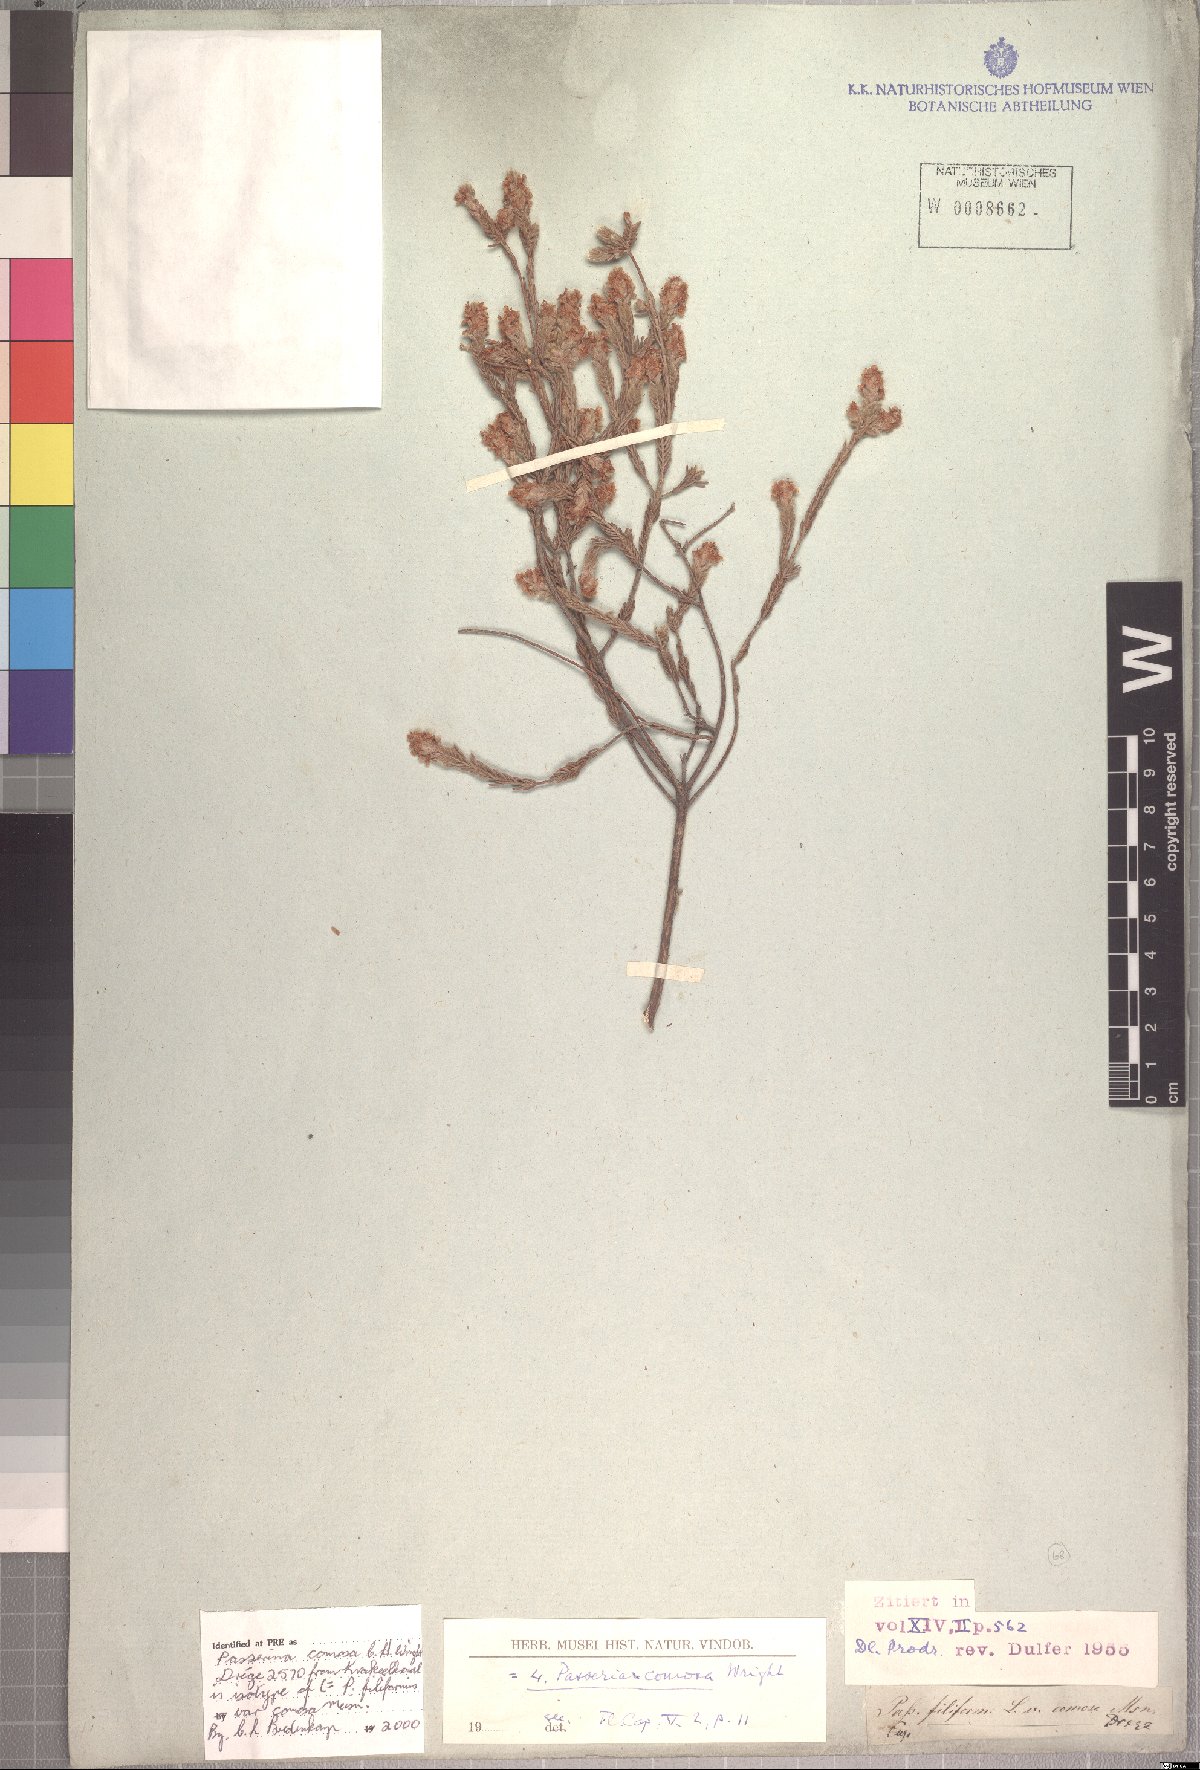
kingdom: Plantae
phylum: Tracheophyta
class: Magnoliopsida
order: Malvales
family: Thymelaeaceae
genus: Passerina
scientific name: Passerina comosa
